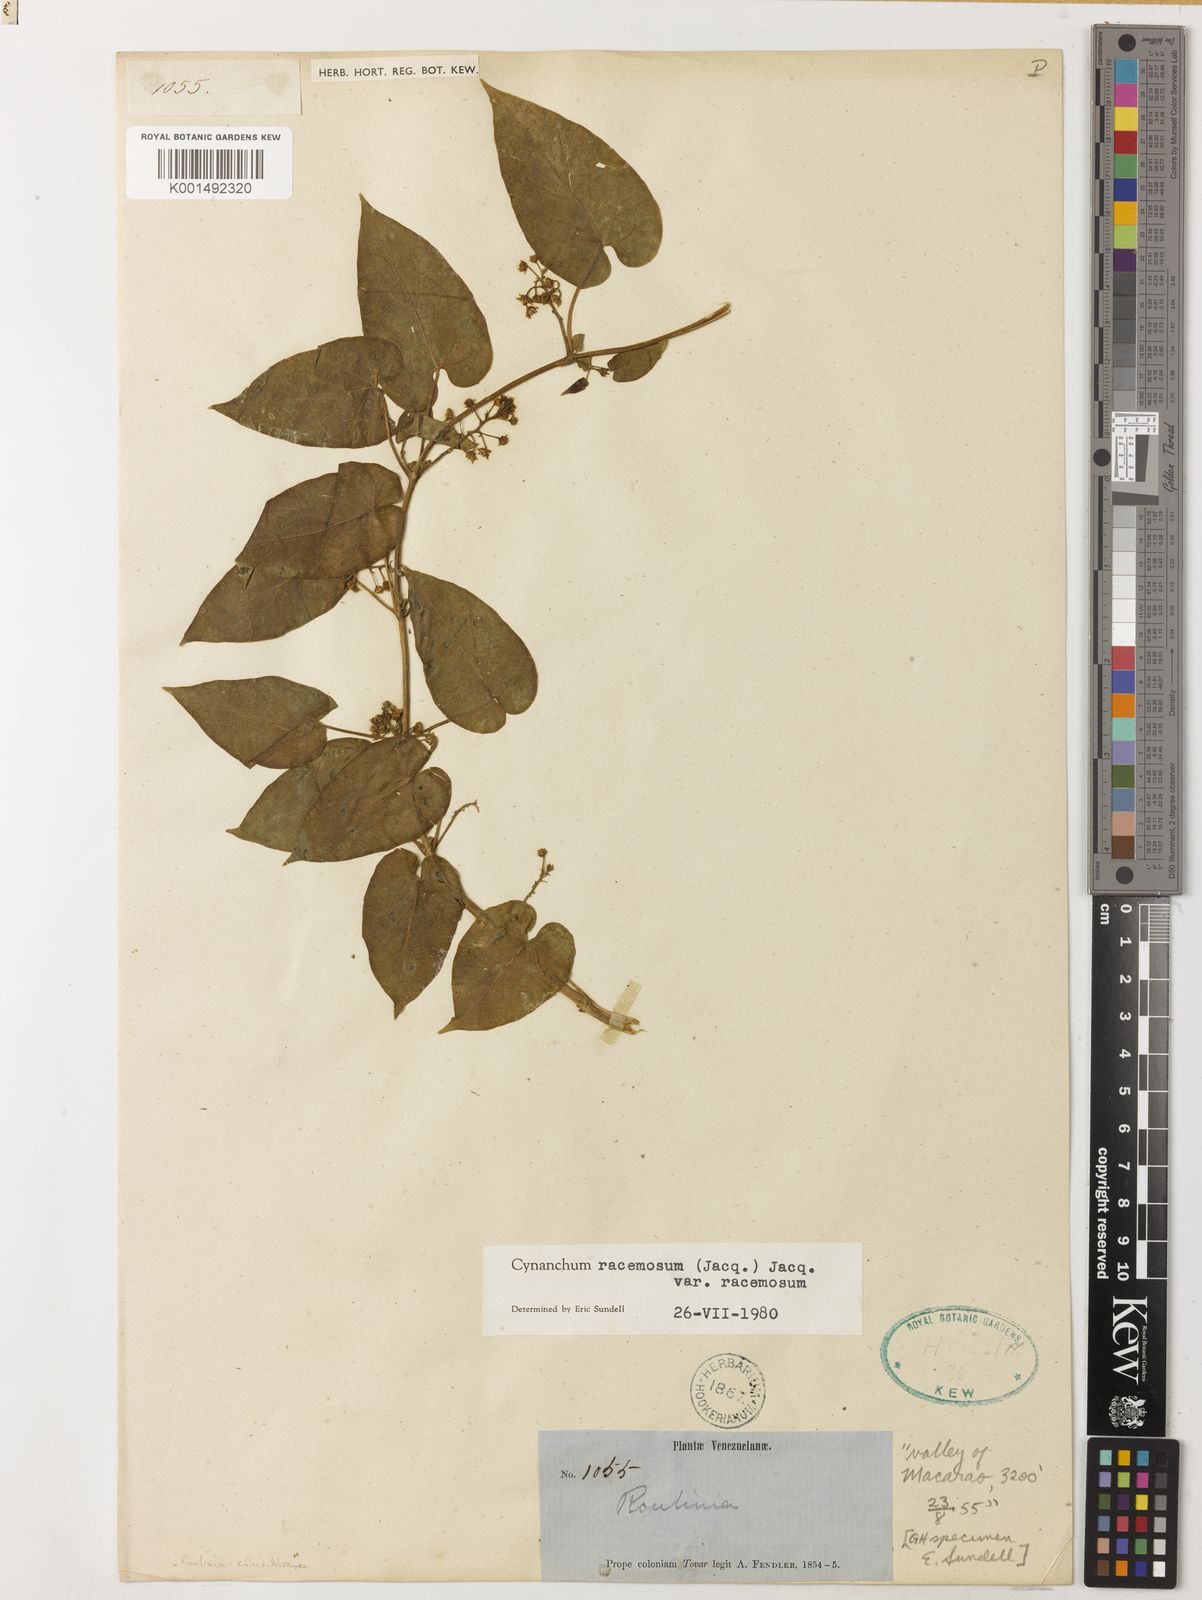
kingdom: Plantae
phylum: Tracheophyta
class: Magnoliopsida
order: Gentianales
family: Apocynaceae
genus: Cynanchum
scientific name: Cynanchum racemosum
